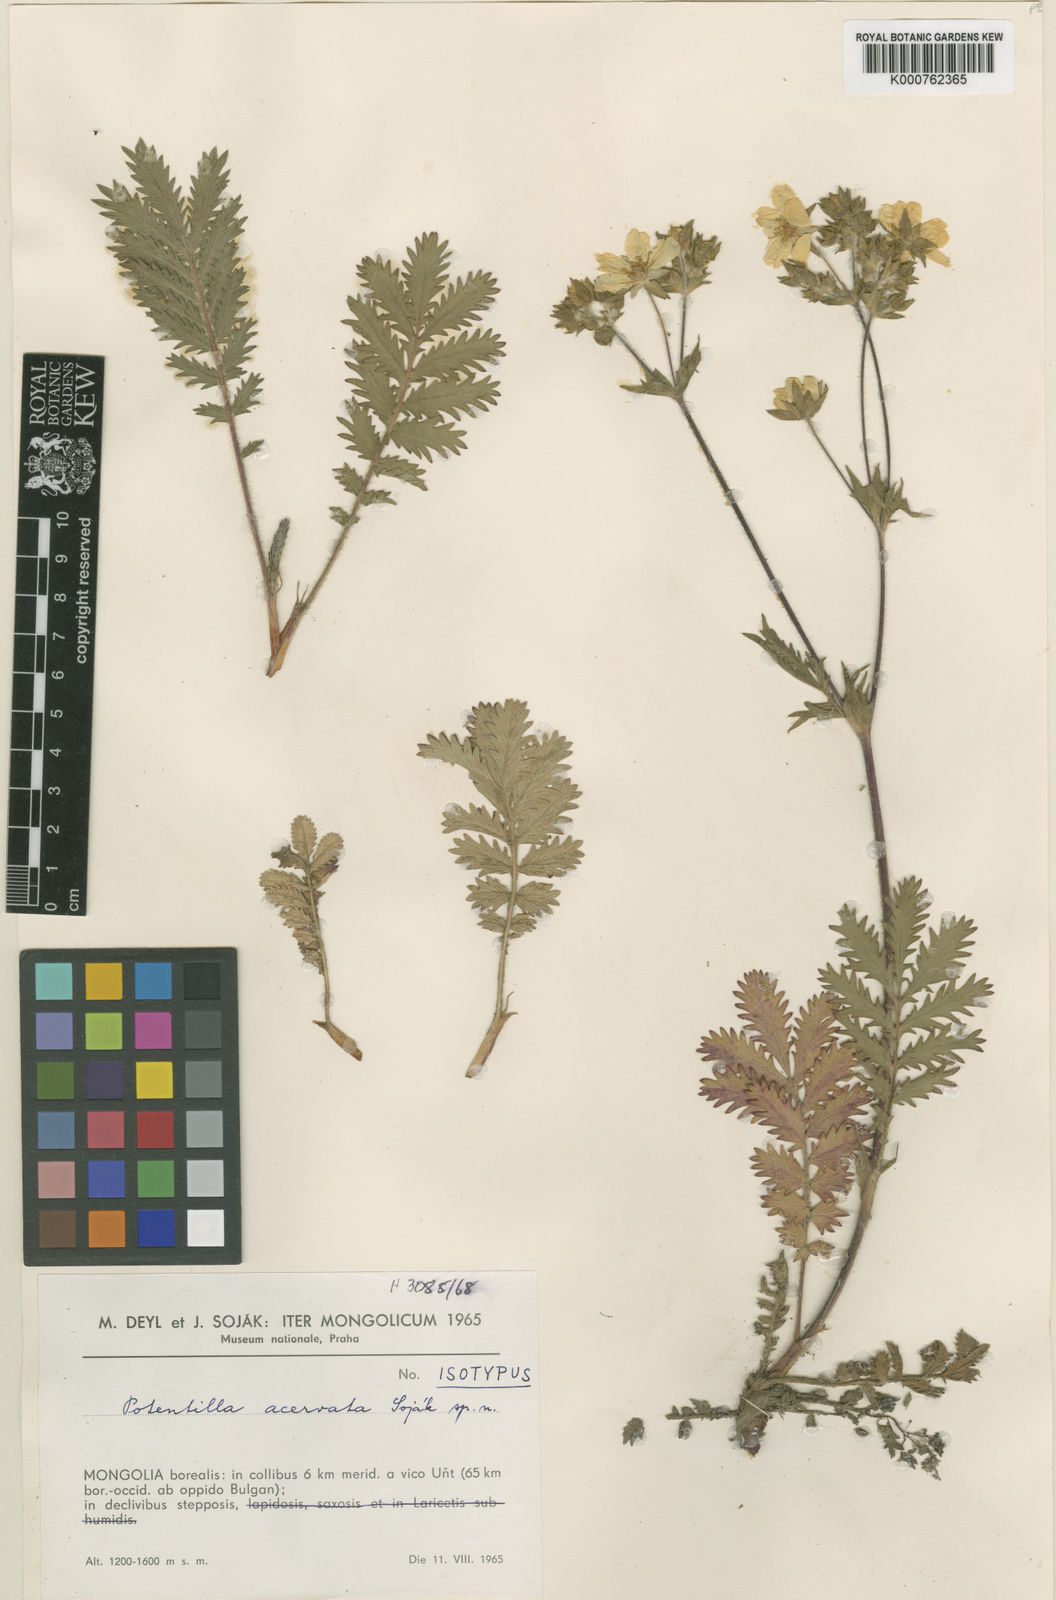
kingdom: Plantae
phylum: Tracheophyta
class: Magnoliopsida
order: Rosales
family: Rosaceae
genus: Potentilla
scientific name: Potentilla
